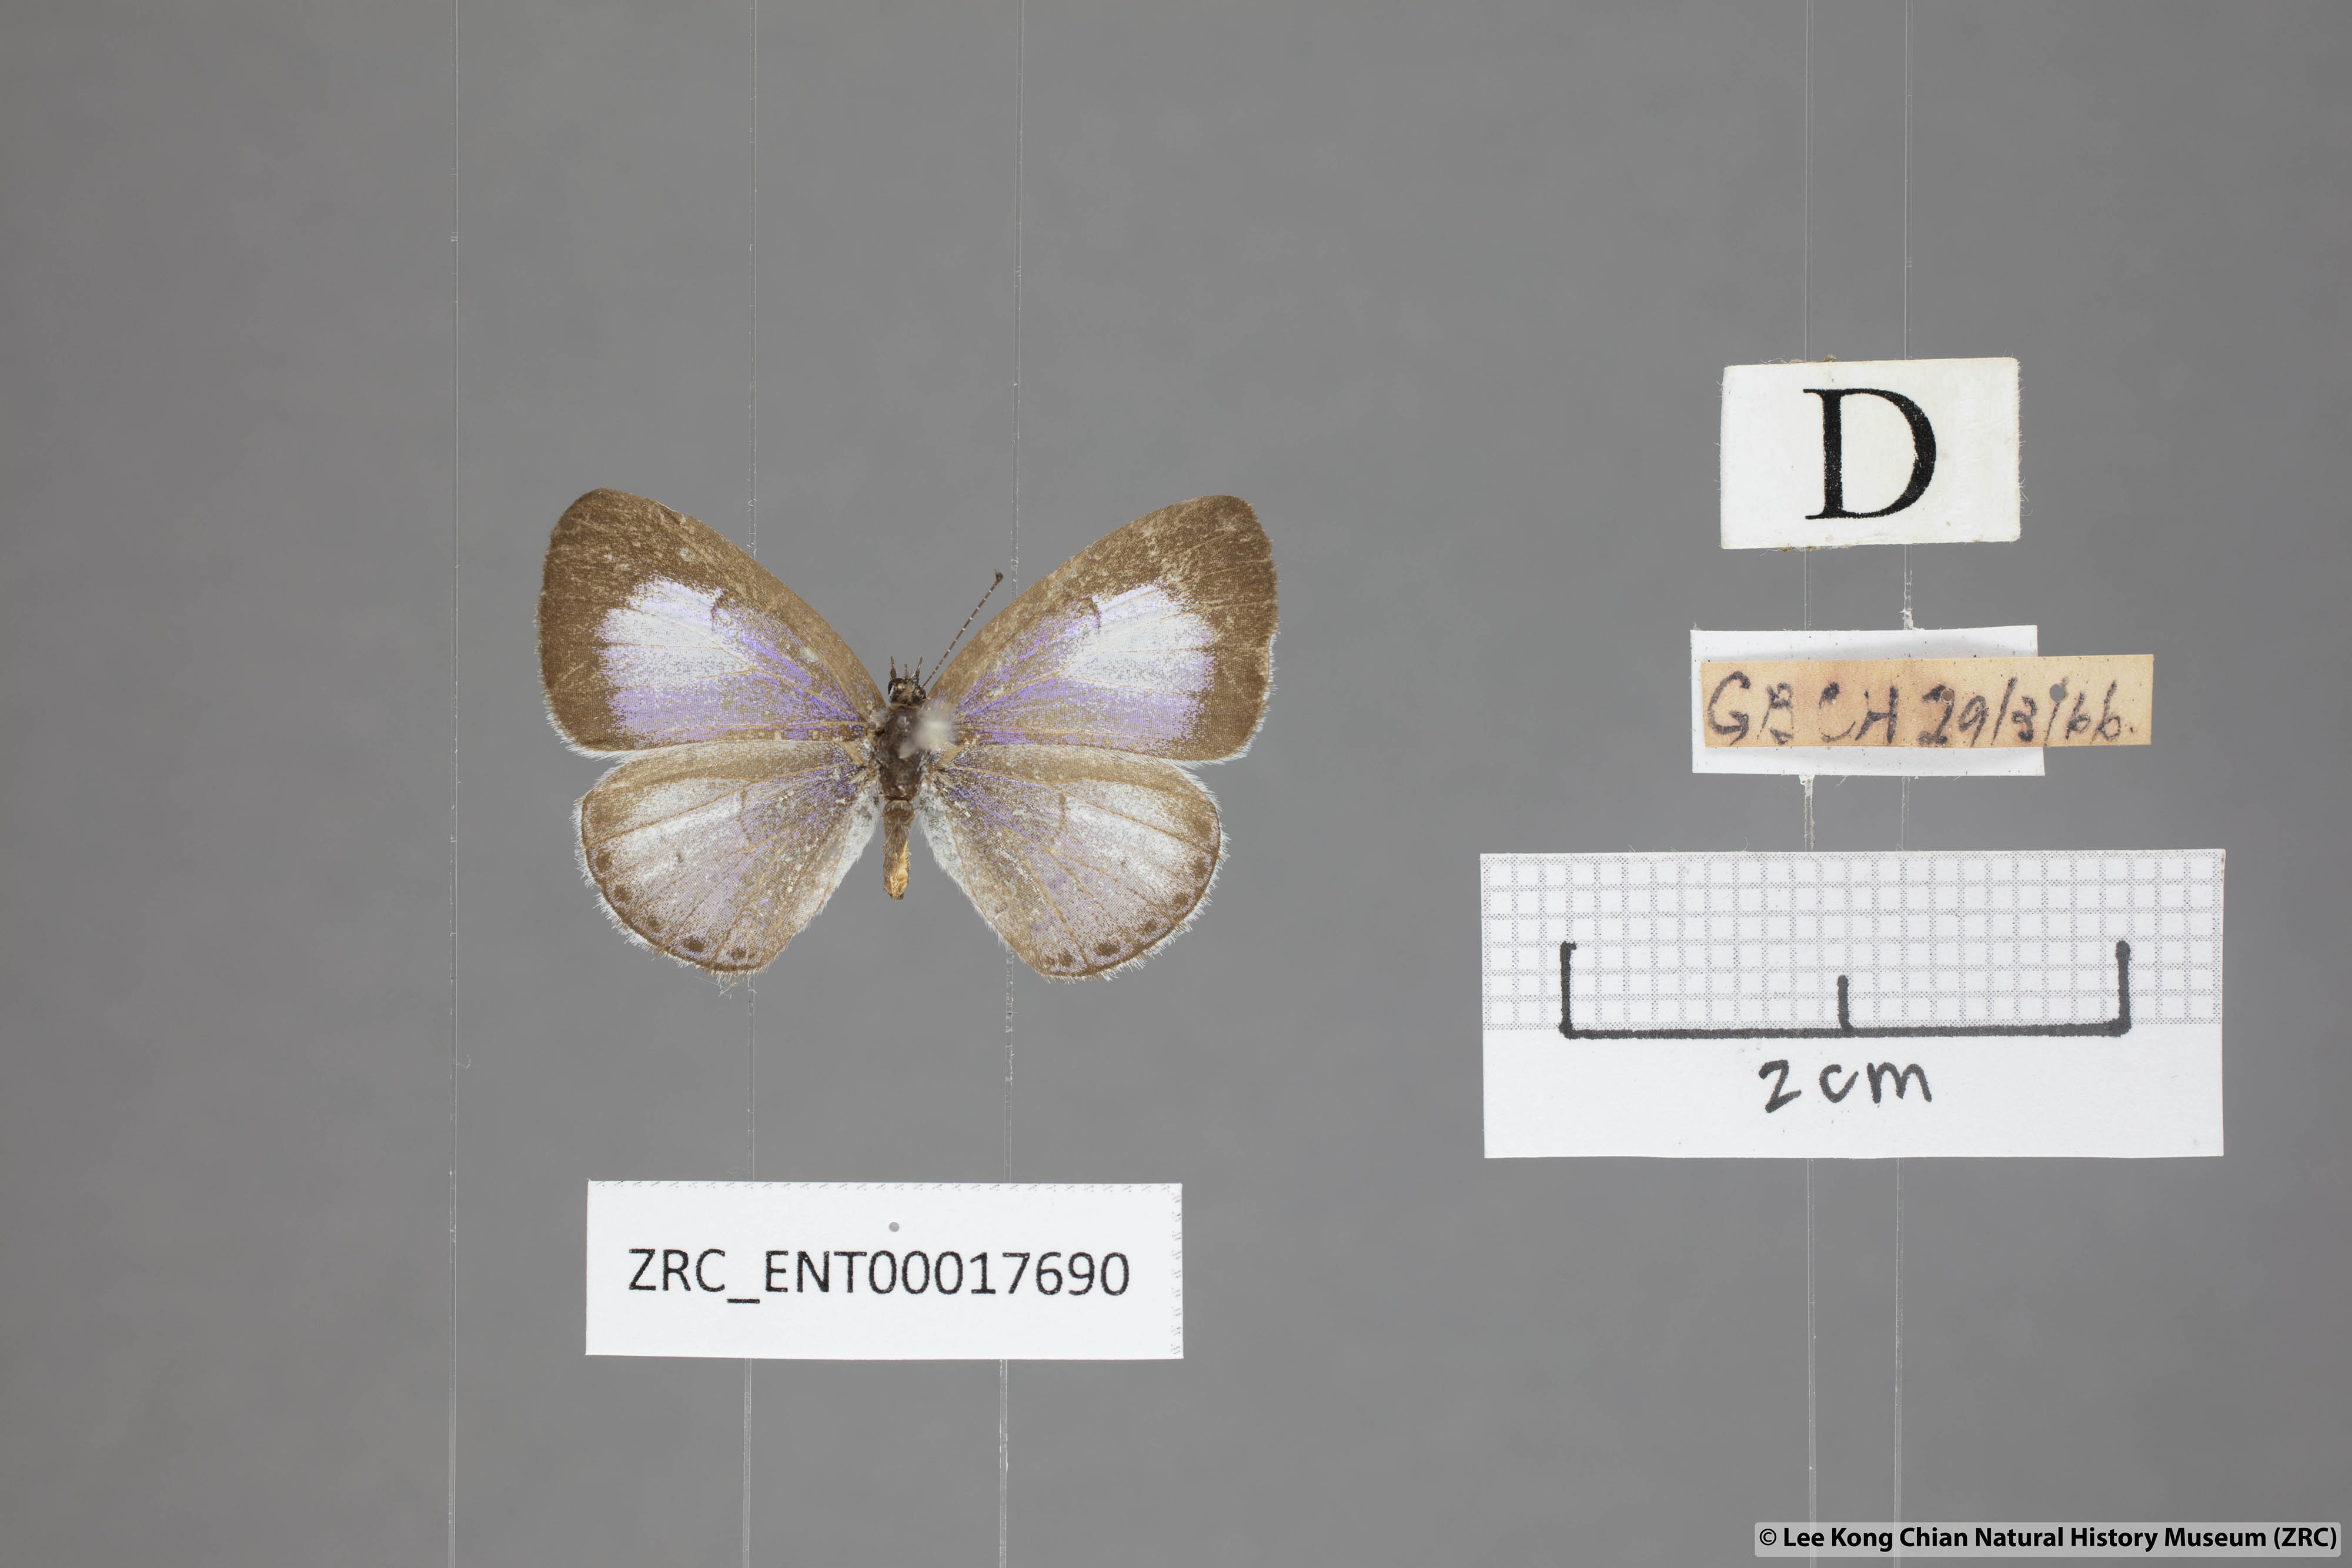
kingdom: Animalia
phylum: Arthropoda
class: Insecta
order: Lepidoptera
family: Lycaenidae
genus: Udara
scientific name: Udara camenae
